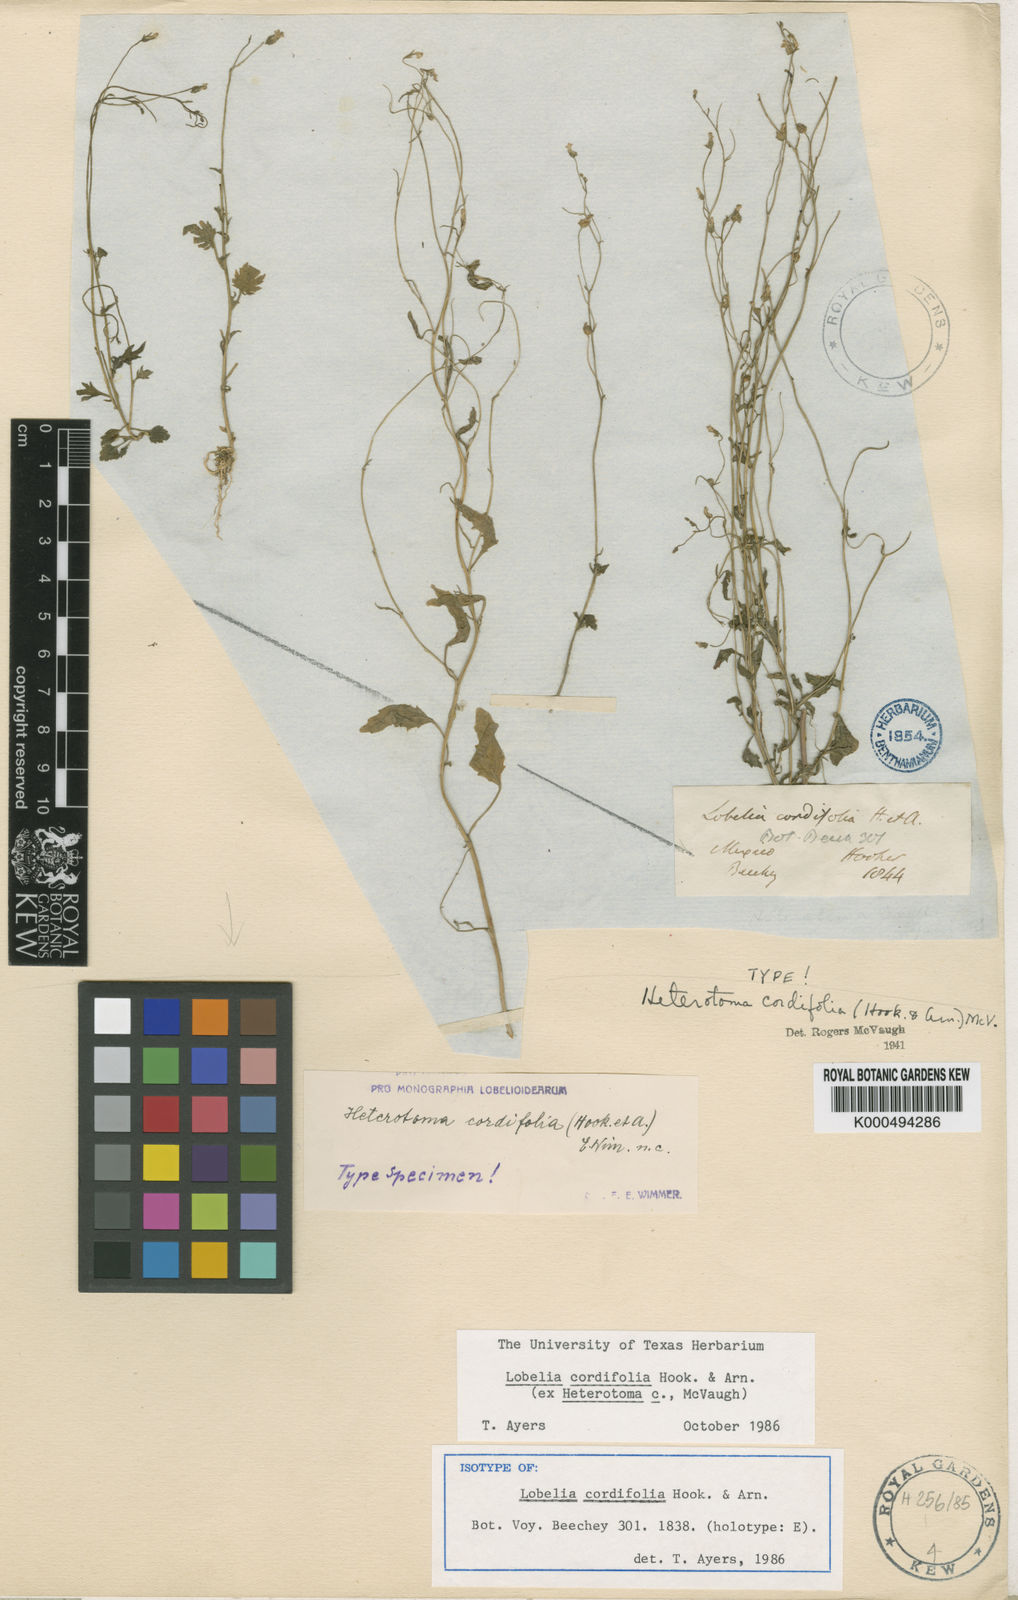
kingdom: Plantae
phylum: Tracheophyta
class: Magnoliopsida
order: Asterales
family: Campanulaceae
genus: Lobelia
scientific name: Lobelia cordifolia
